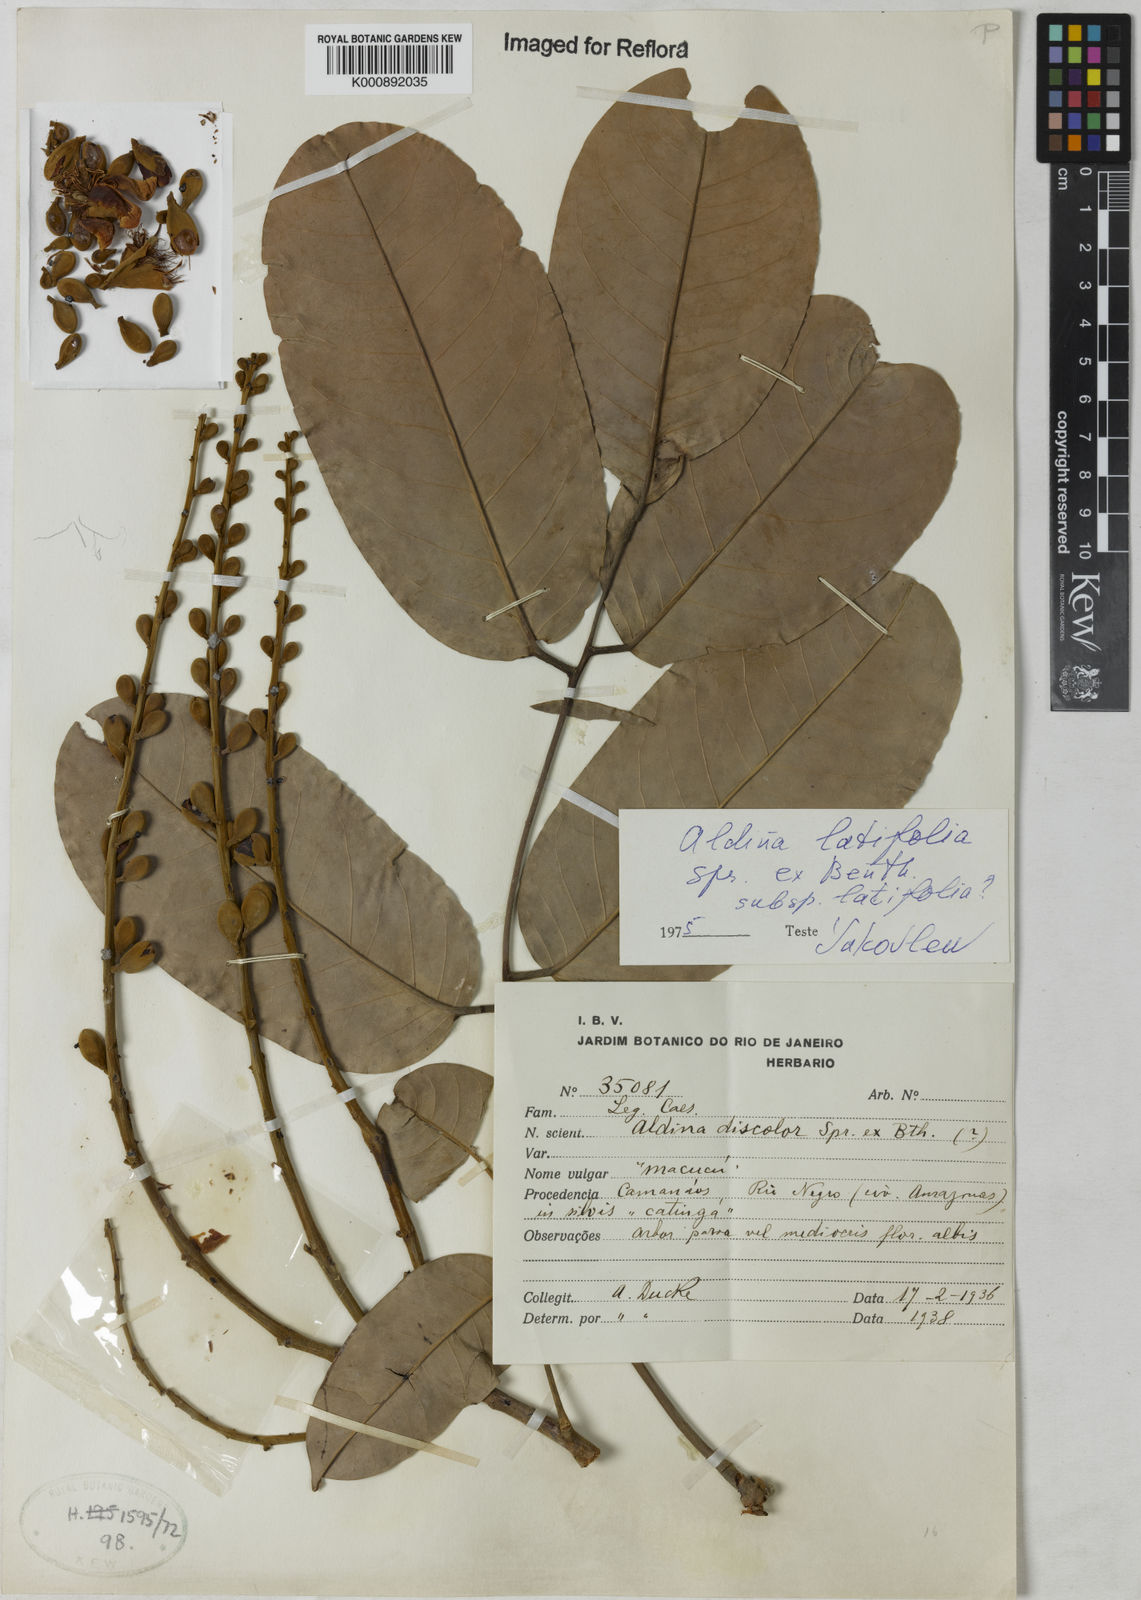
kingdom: Plantae
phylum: Tracheophyta
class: Magnoliopsida
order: Fabales
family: Fabaceae
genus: Aldina
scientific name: Aldina latifolia
